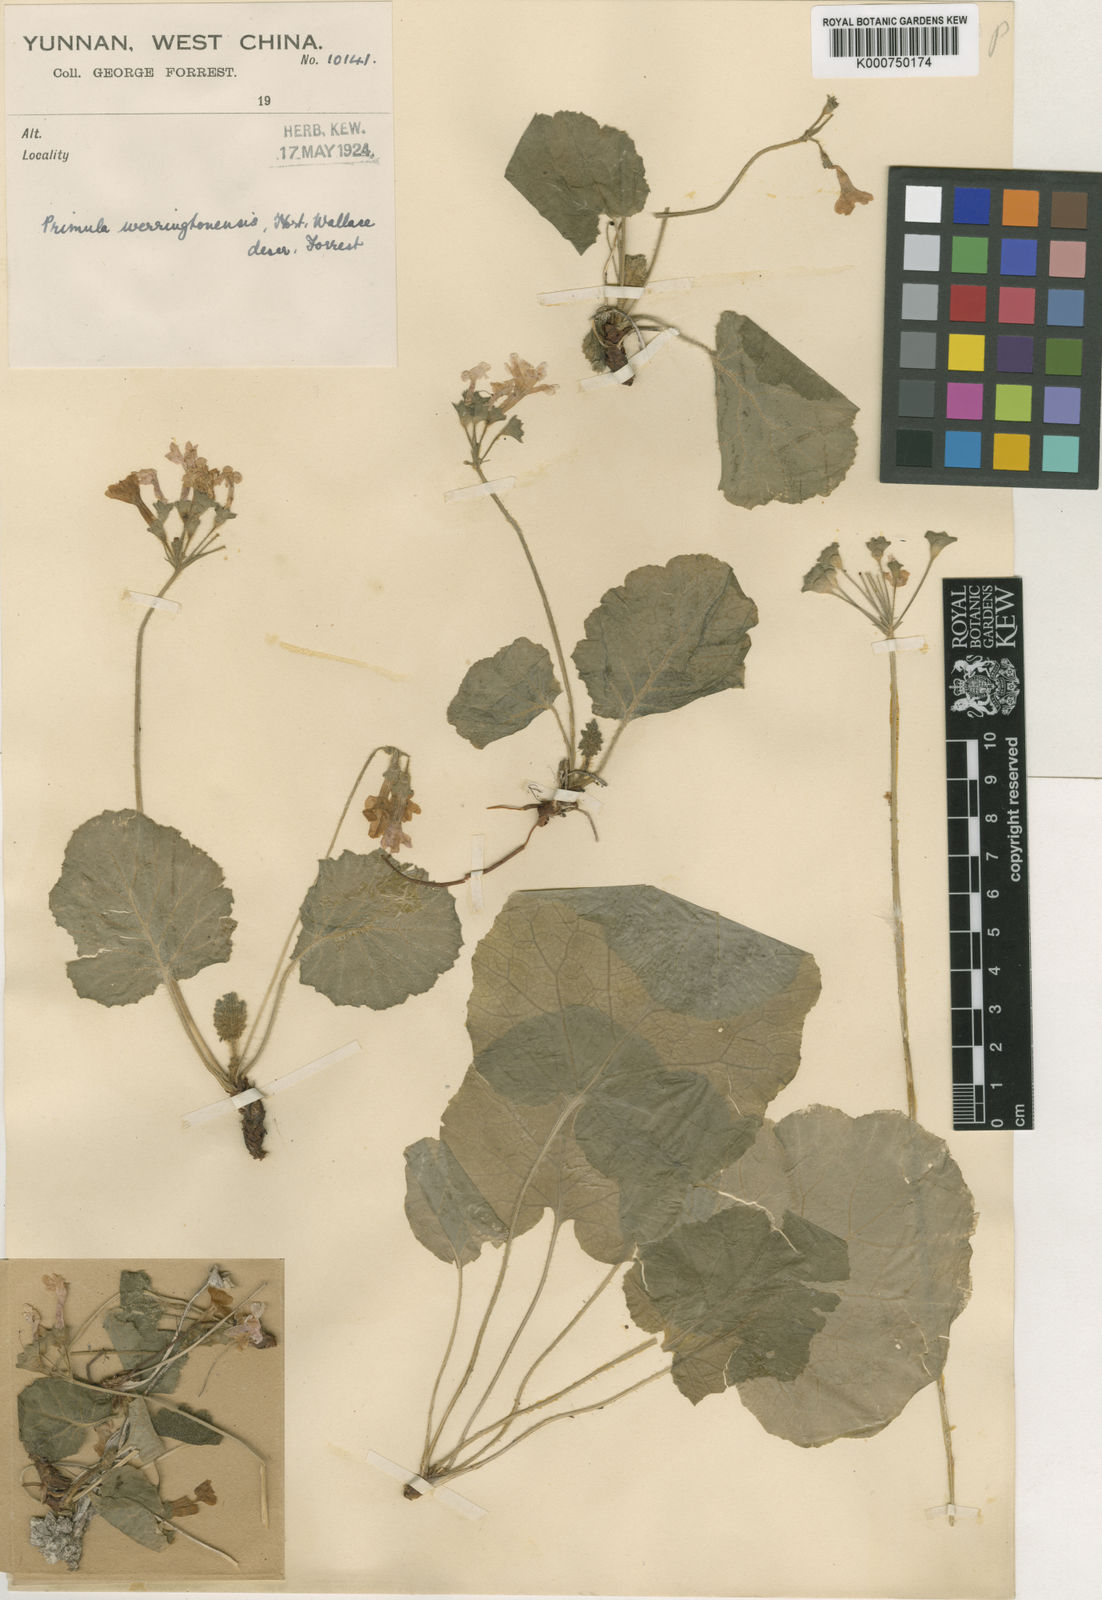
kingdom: Plantae
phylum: Tracheophyta
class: Magnoliopsida
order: Ericales
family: Primulaceae
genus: Primula
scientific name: Primula obconica
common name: German primrose
